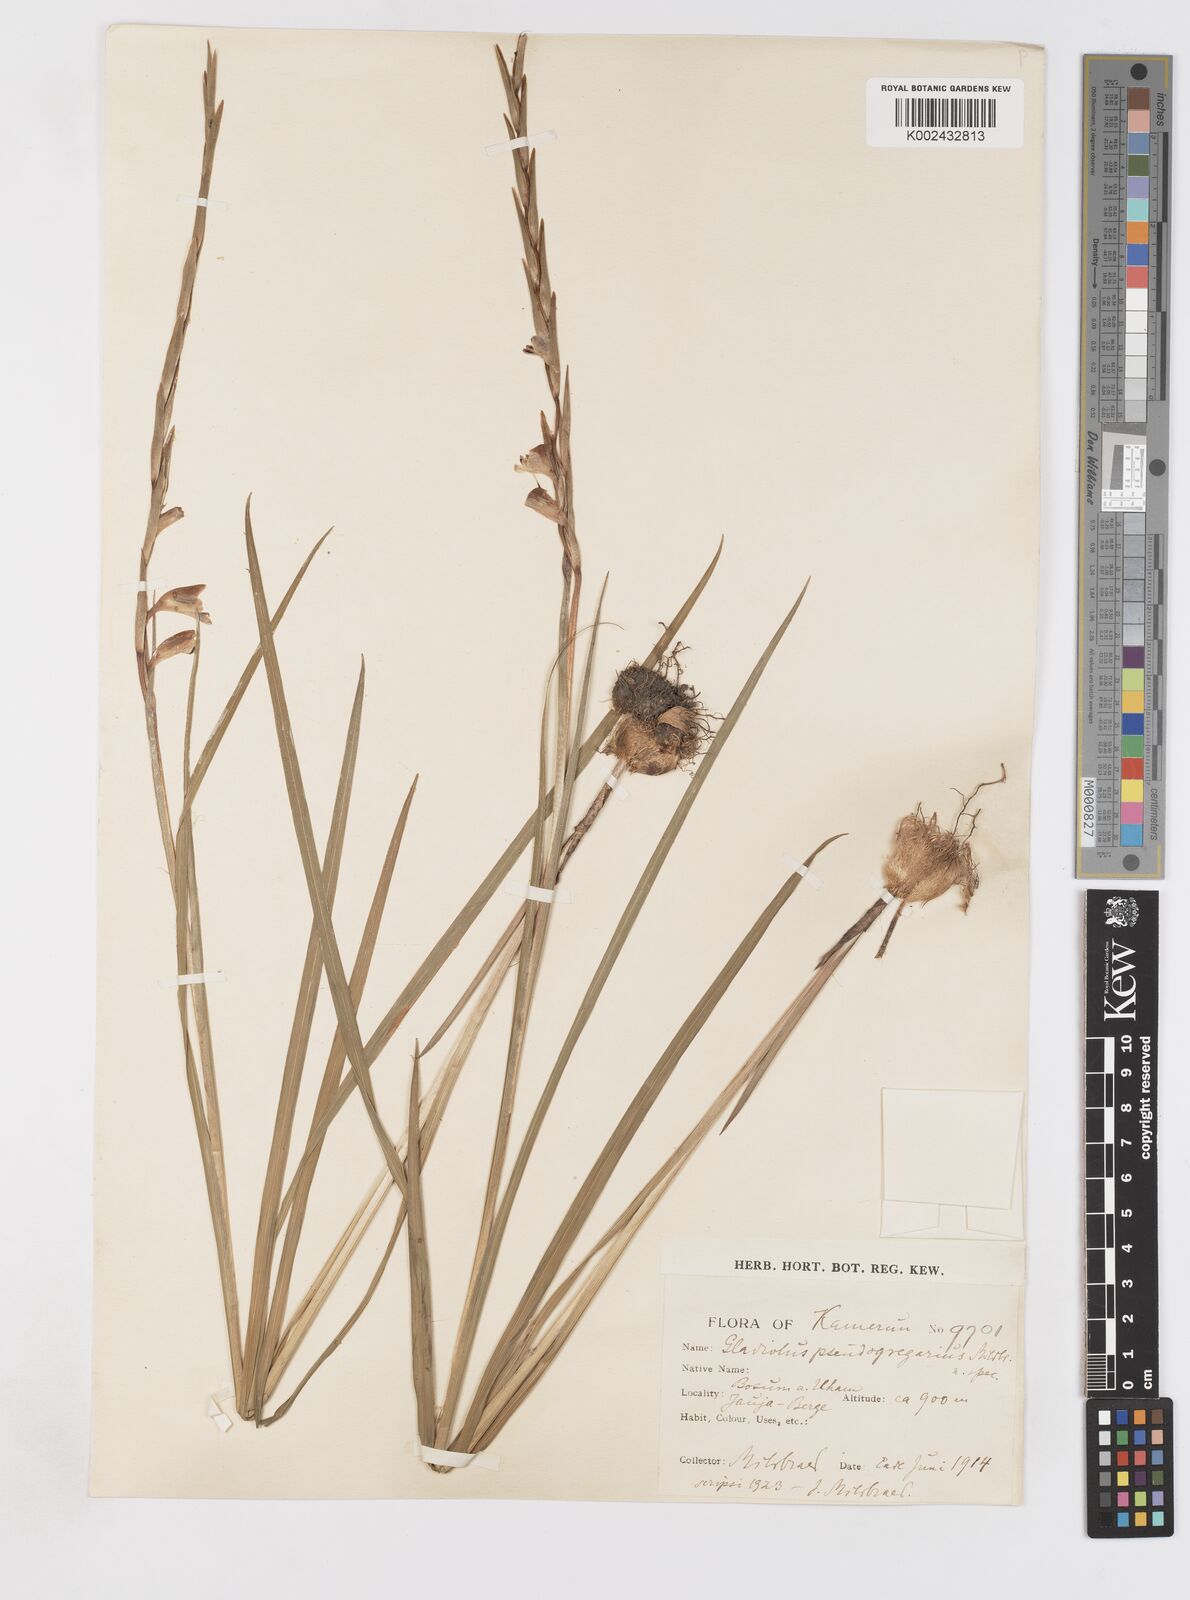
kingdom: Plantae
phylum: Tracheophyta
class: Liliopsida
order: Asparagales
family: Iridaceae
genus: Gladiolus
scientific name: Gladiolus gregarius
